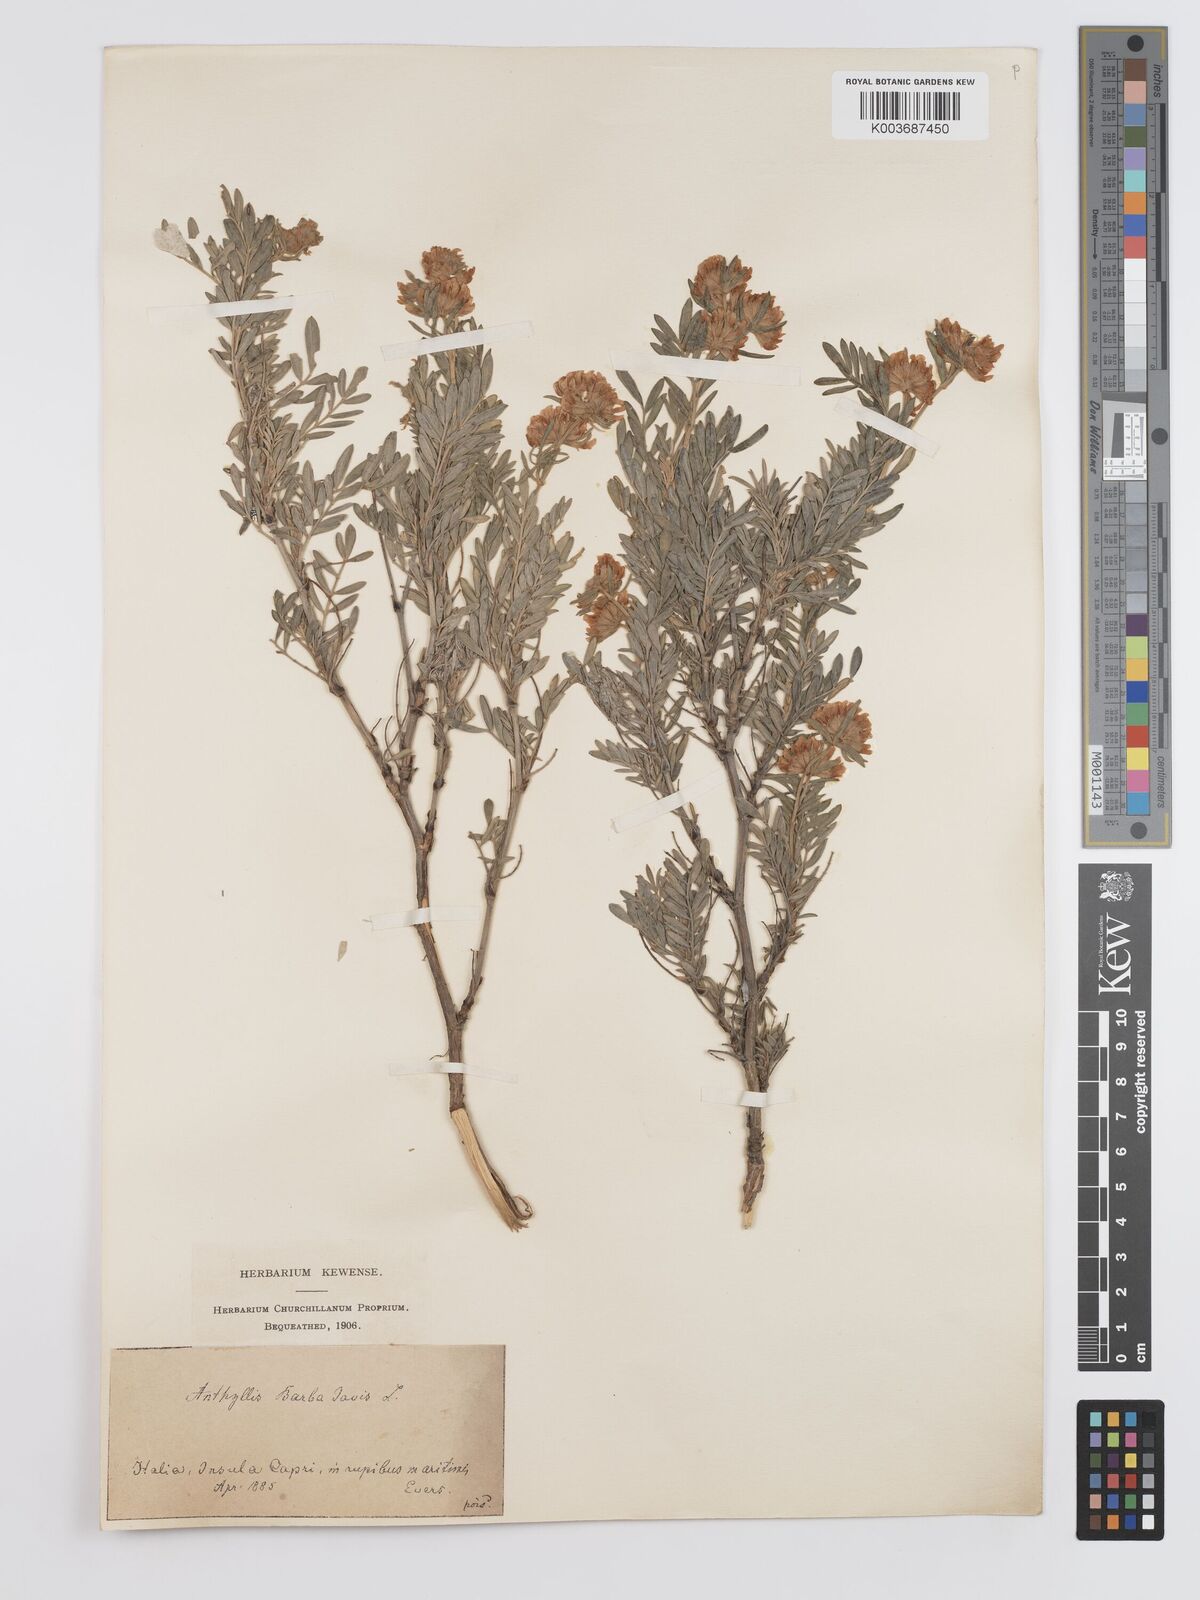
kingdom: Plantae
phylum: Tracheophyta
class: Magnoliopsida
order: Fabales
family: Fabaceae
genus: Anthyllis
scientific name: Anthyllis barba-jovis
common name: Jupiter's-beard
